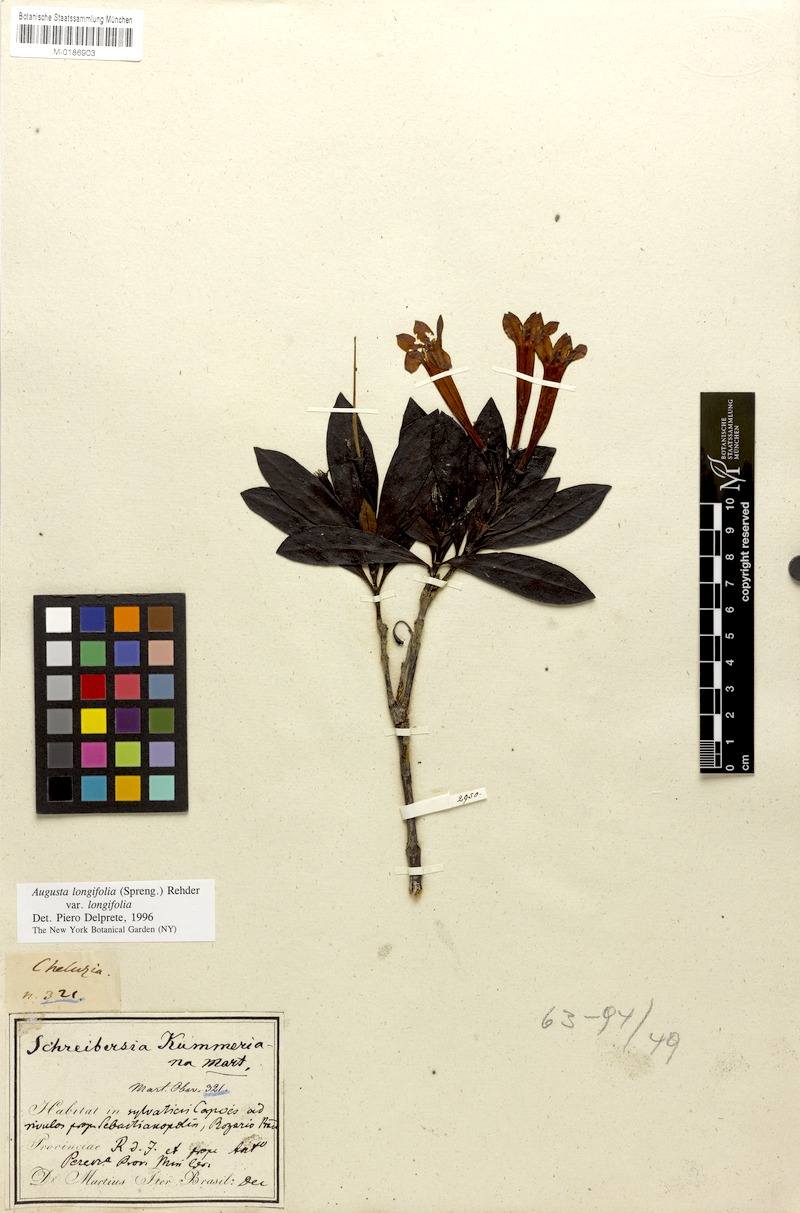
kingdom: Plantae
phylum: Tracheophyta
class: Magnoliopsida
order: Gentianales
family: Rubiaceae
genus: Augusta
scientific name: Augusta longifolia
